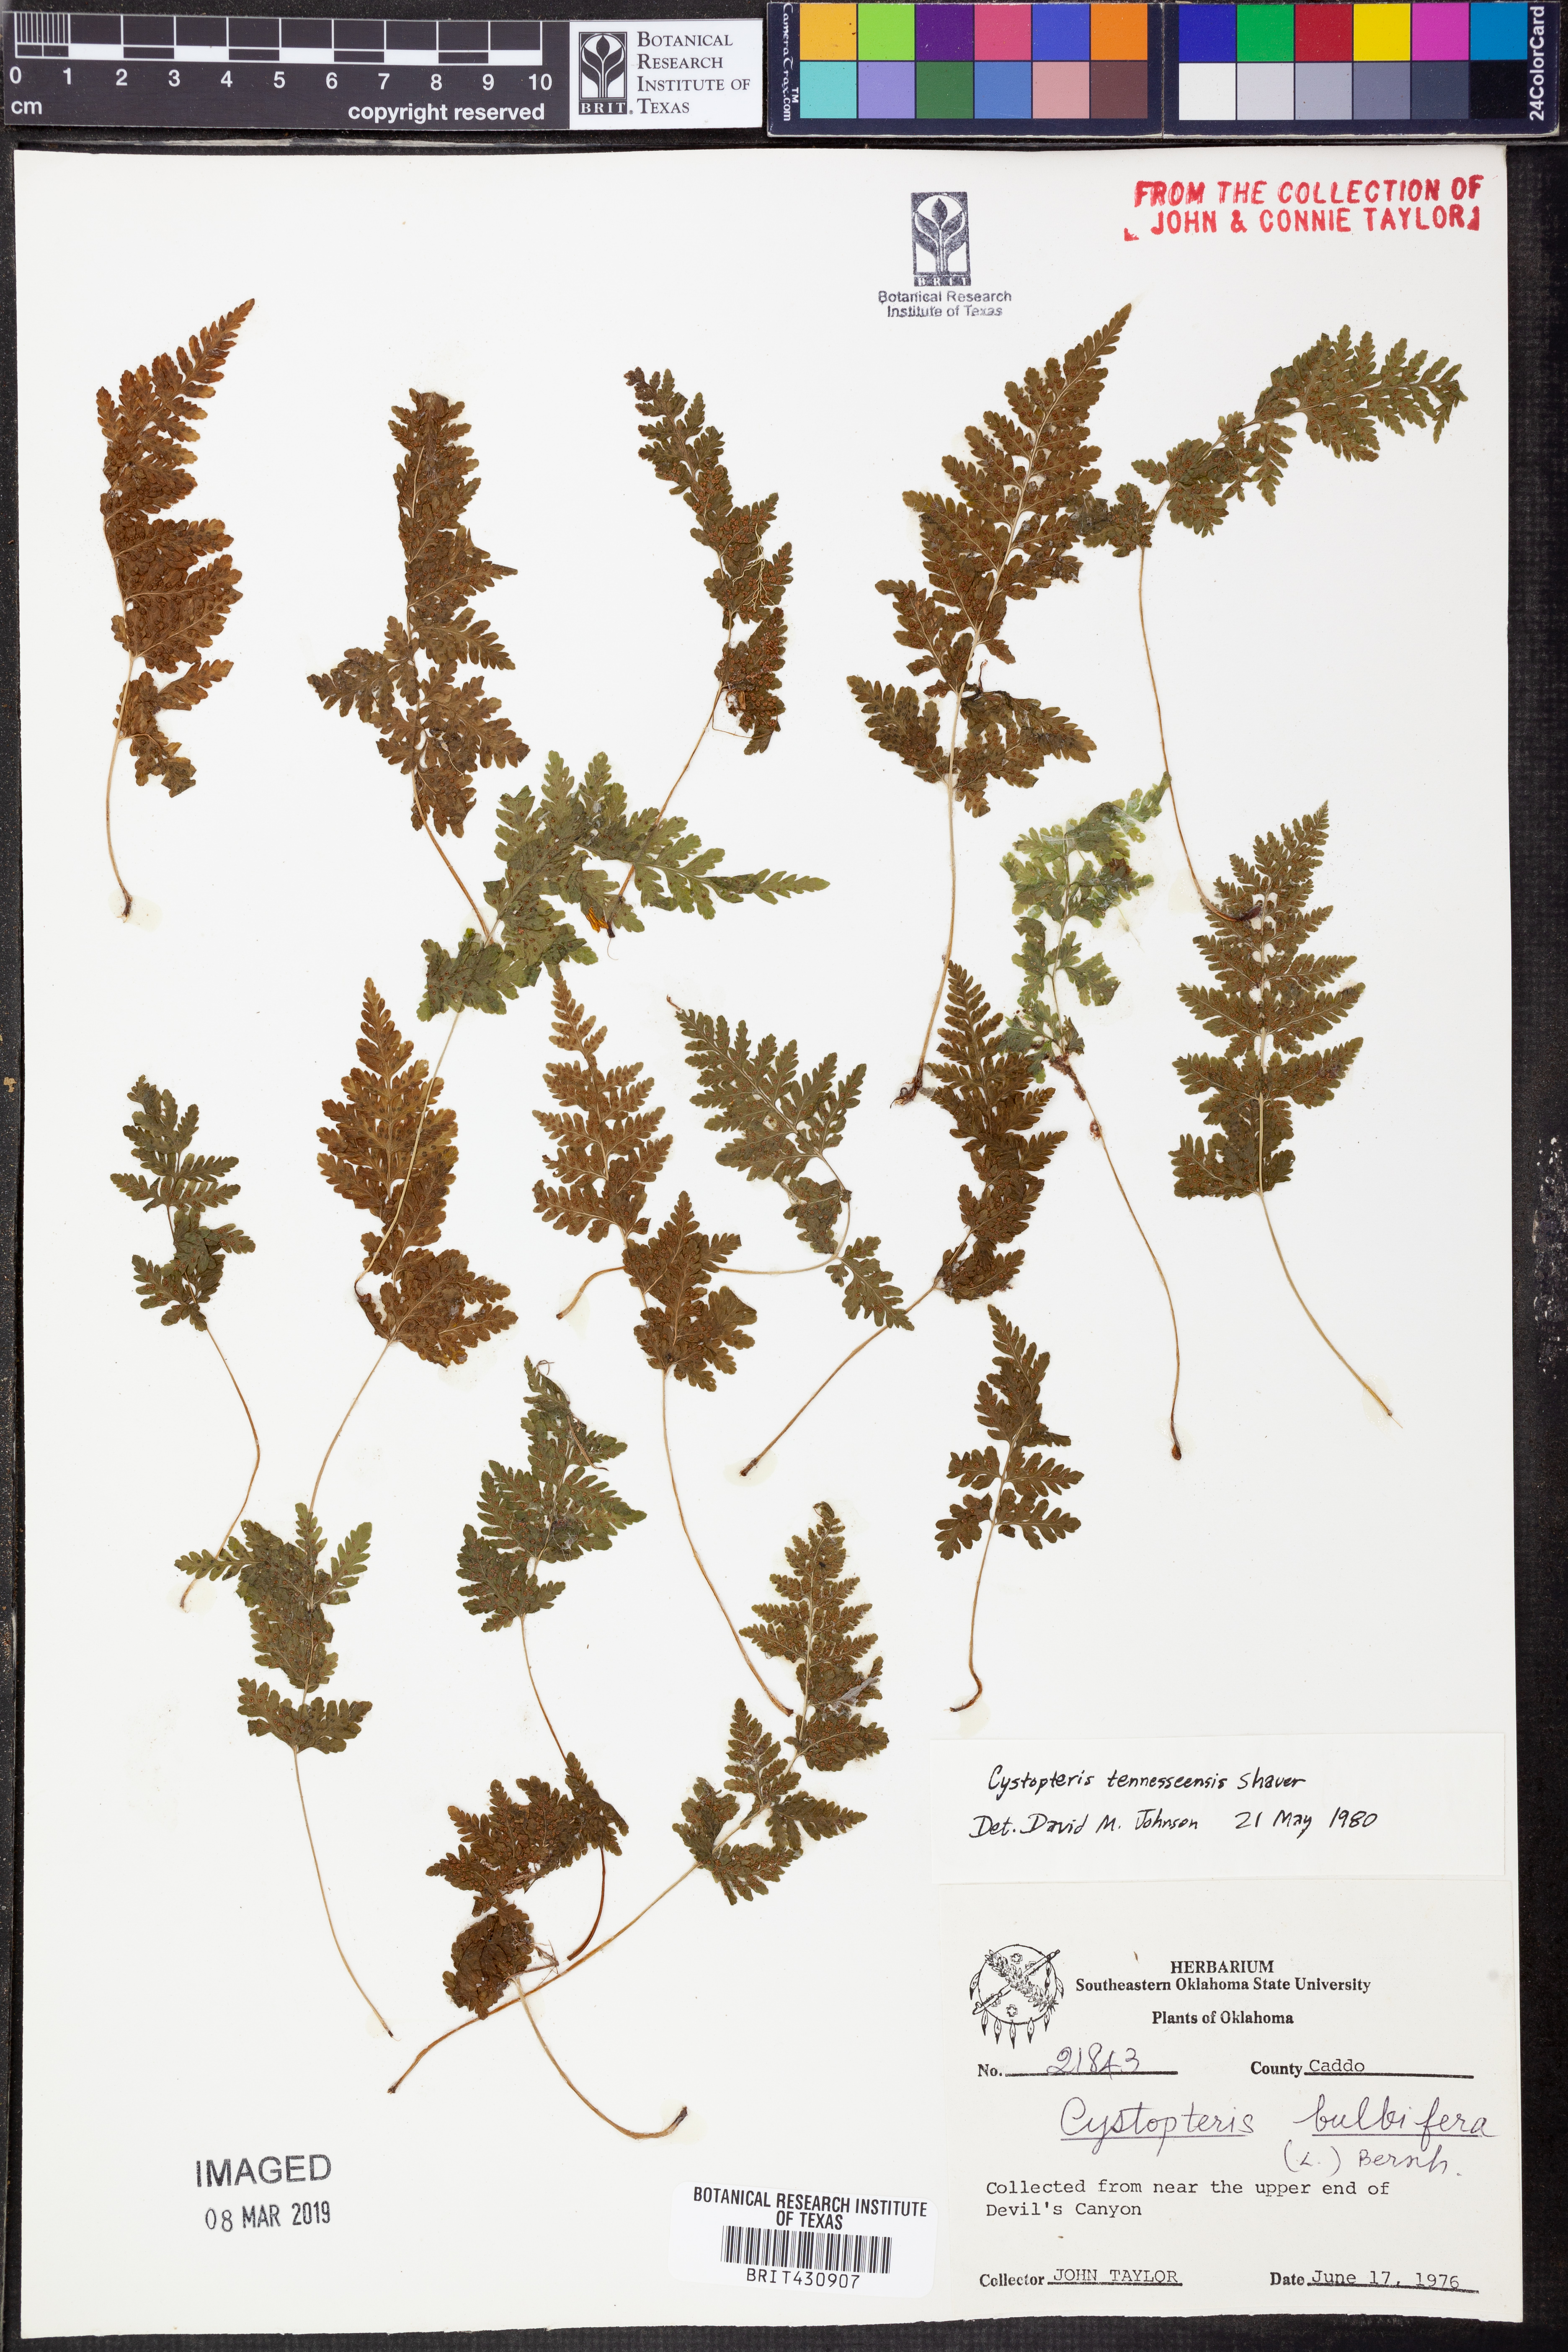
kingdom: Plantae
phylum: Tracheophyta
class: Polypodiopsida
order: Polypodiales
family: Cystopteridaceae
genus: Cystopteris
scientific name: Cystopteris tennesseensis
